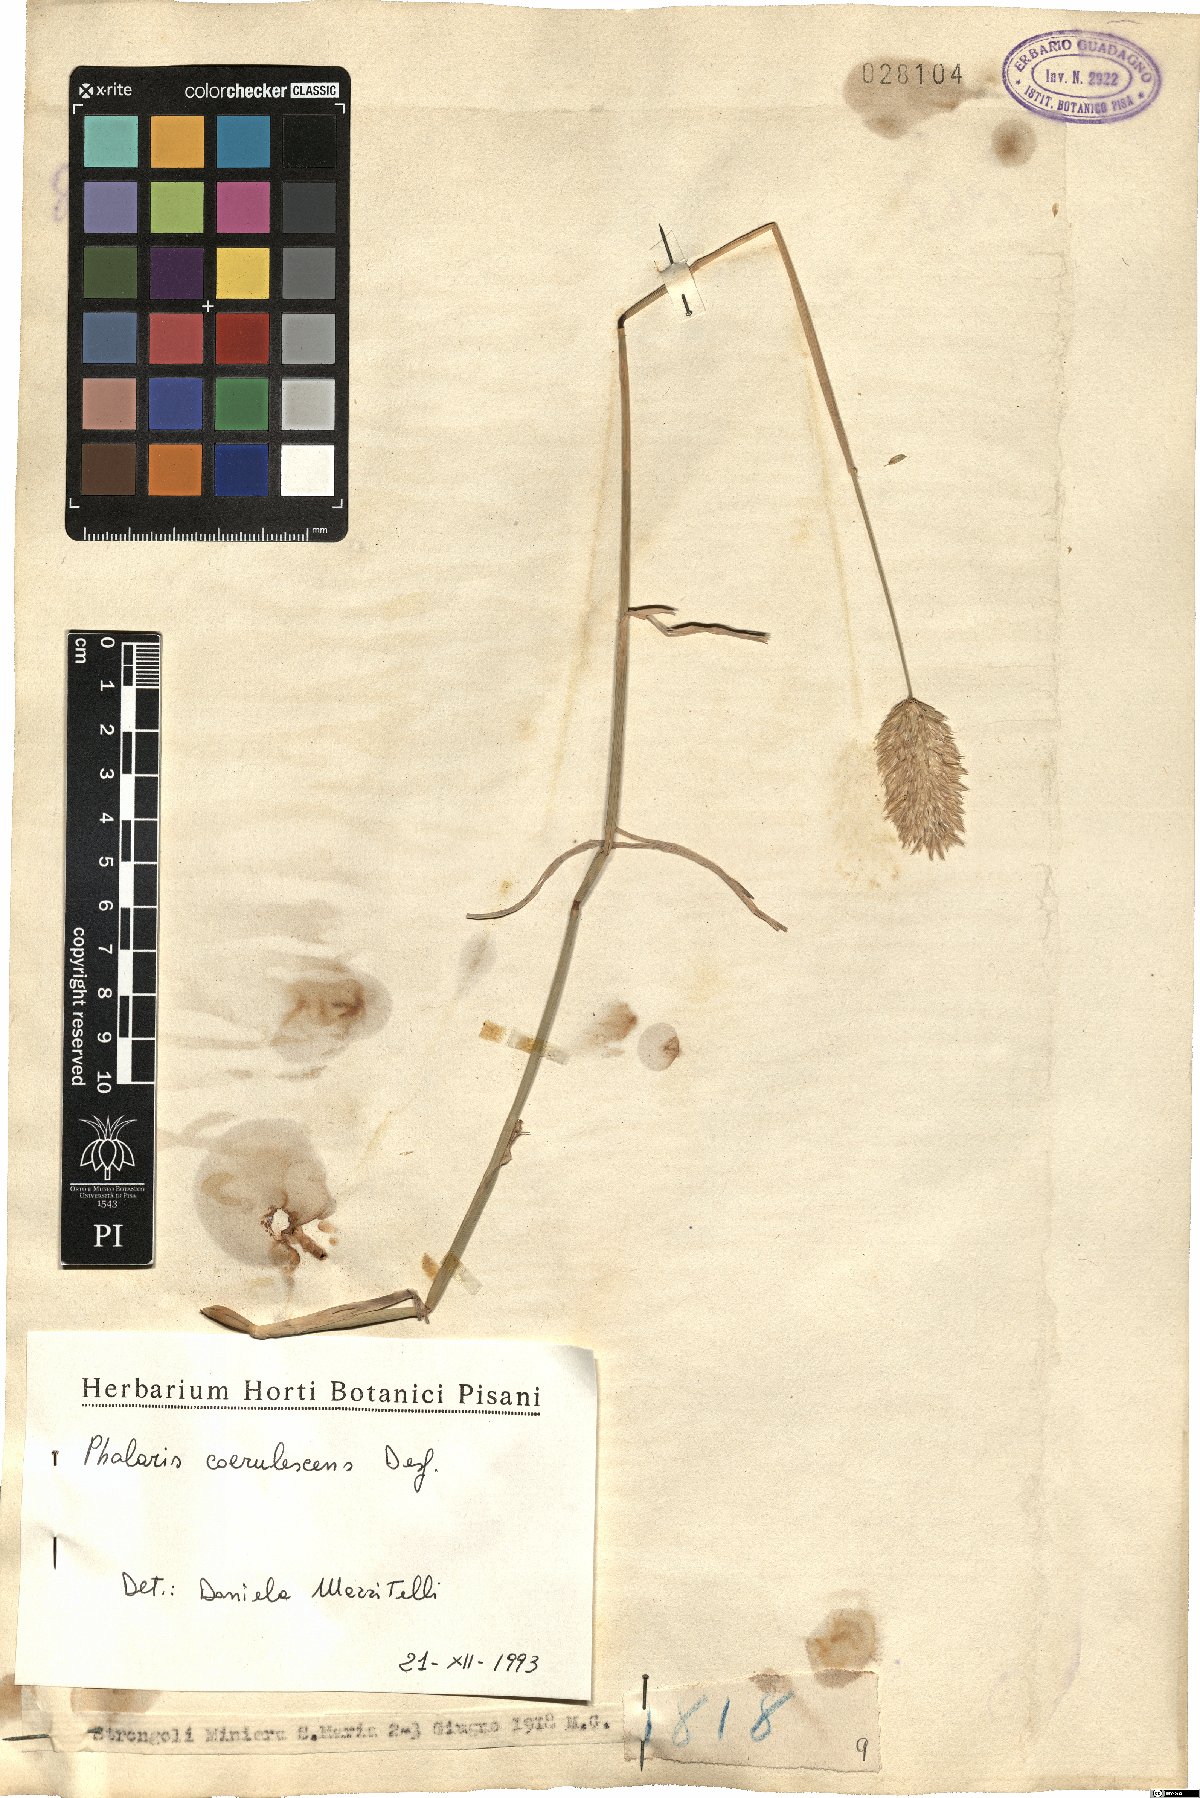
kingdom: Plantae
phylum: Tracheophyta
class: Liliopsida
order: Poales
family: Poaceae
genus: Phalaris
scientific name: Phalaris coerulescens
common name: Sunolgrass
